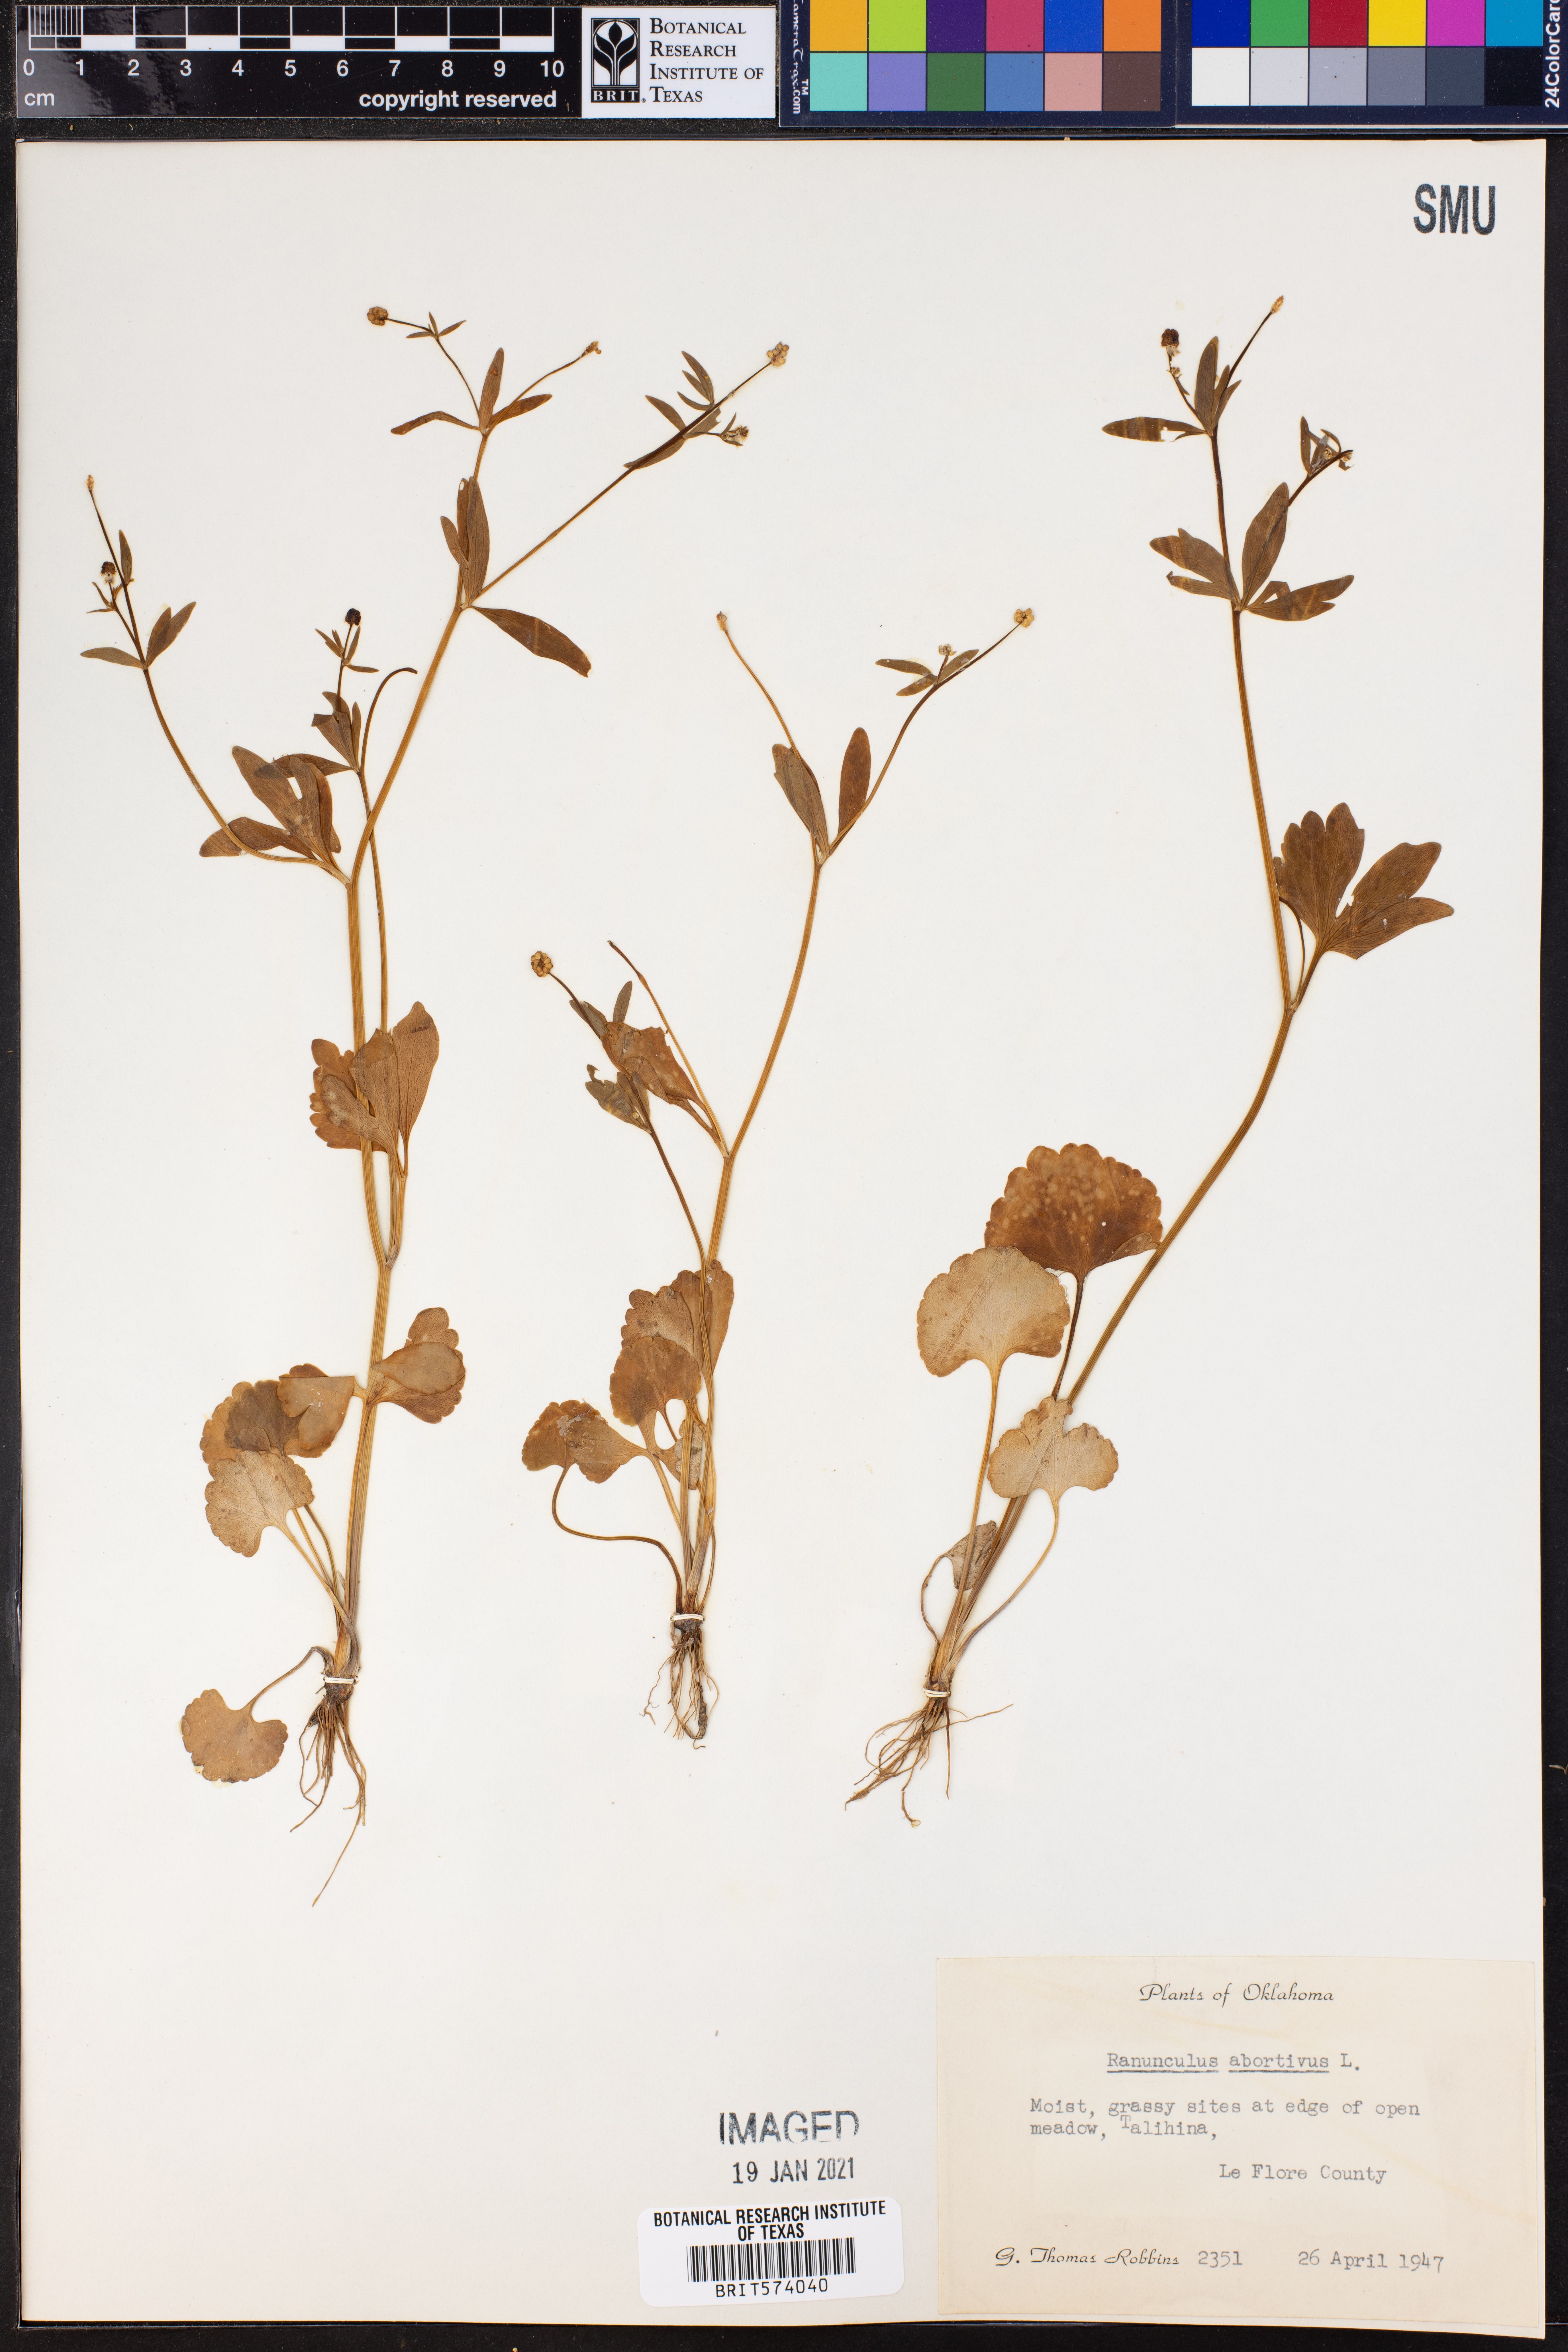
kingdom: Plantae
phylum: Tracheophyta
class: Magnoliopsida
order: Ranunculales
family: Ranunculaceae
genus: Ranunculus
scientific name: Ranunculus abortivus
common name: Early wood buttercup
